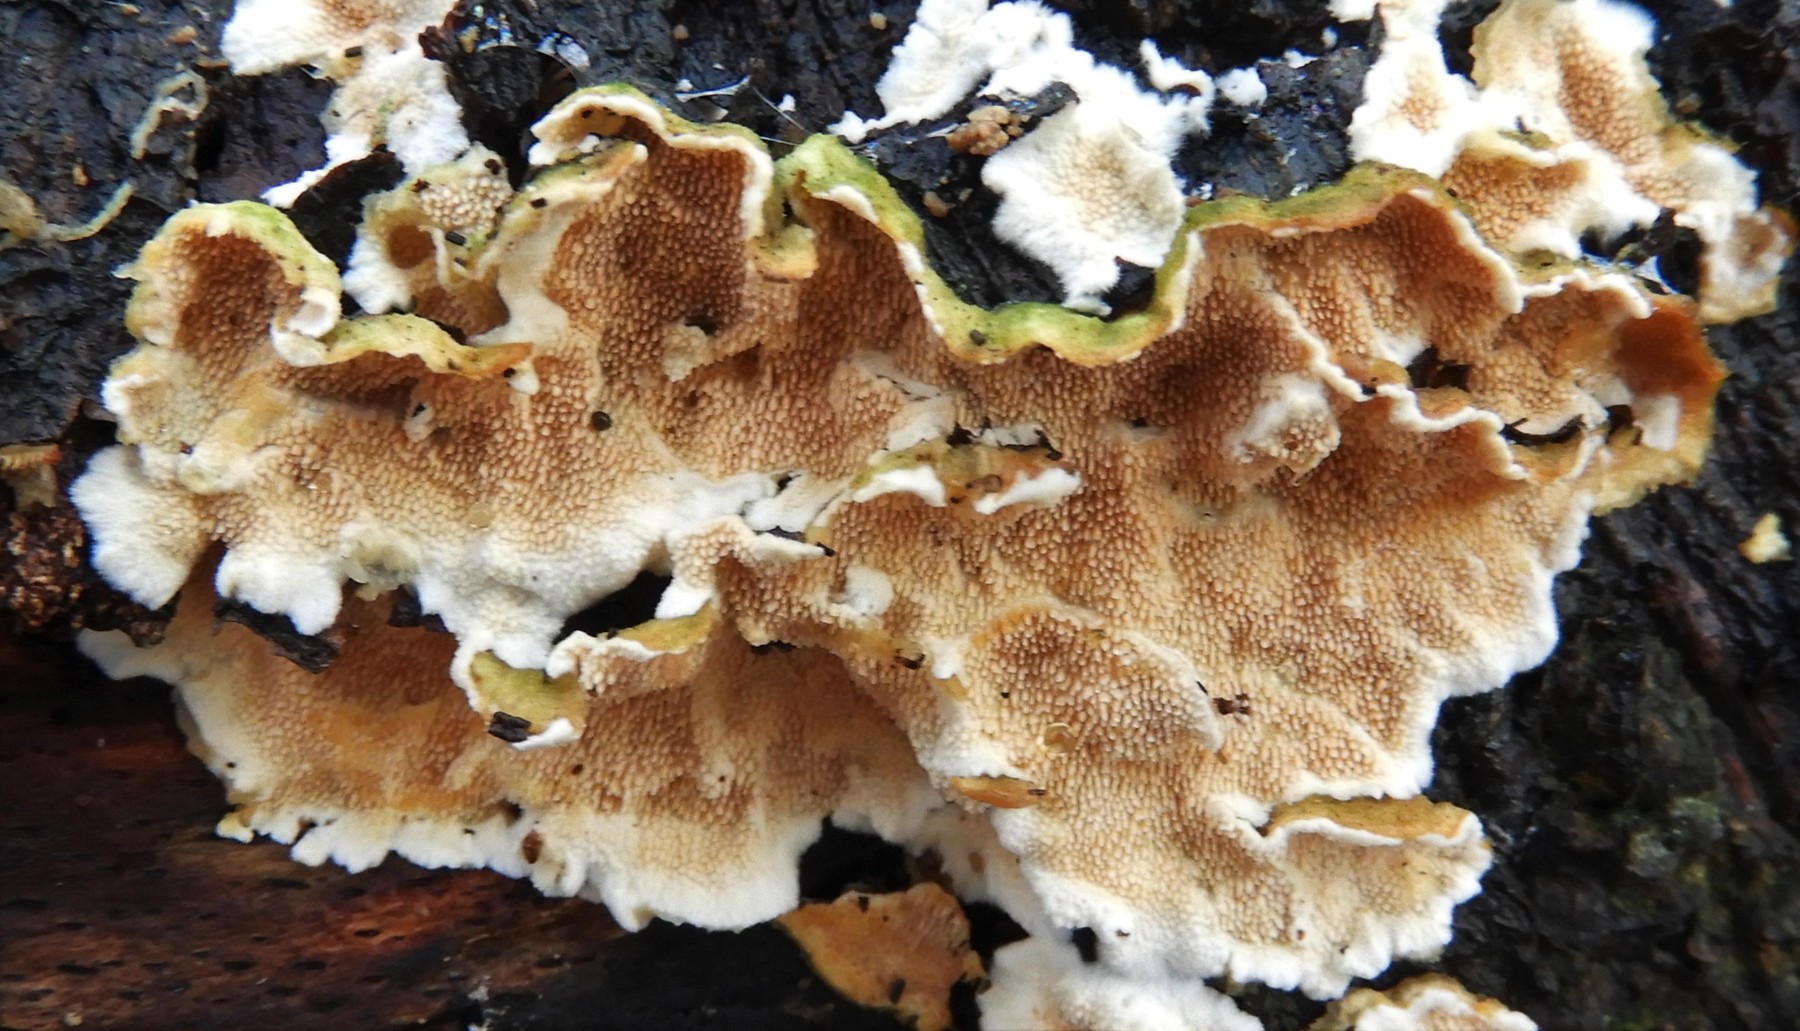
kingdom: Fungi
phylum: Basidiomycota
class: Agaricomycetes
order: Polyporales
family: Steccherinaceae
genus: Steccherinum
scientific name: Steccherinum ochraceum
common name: almindelig skønpig
